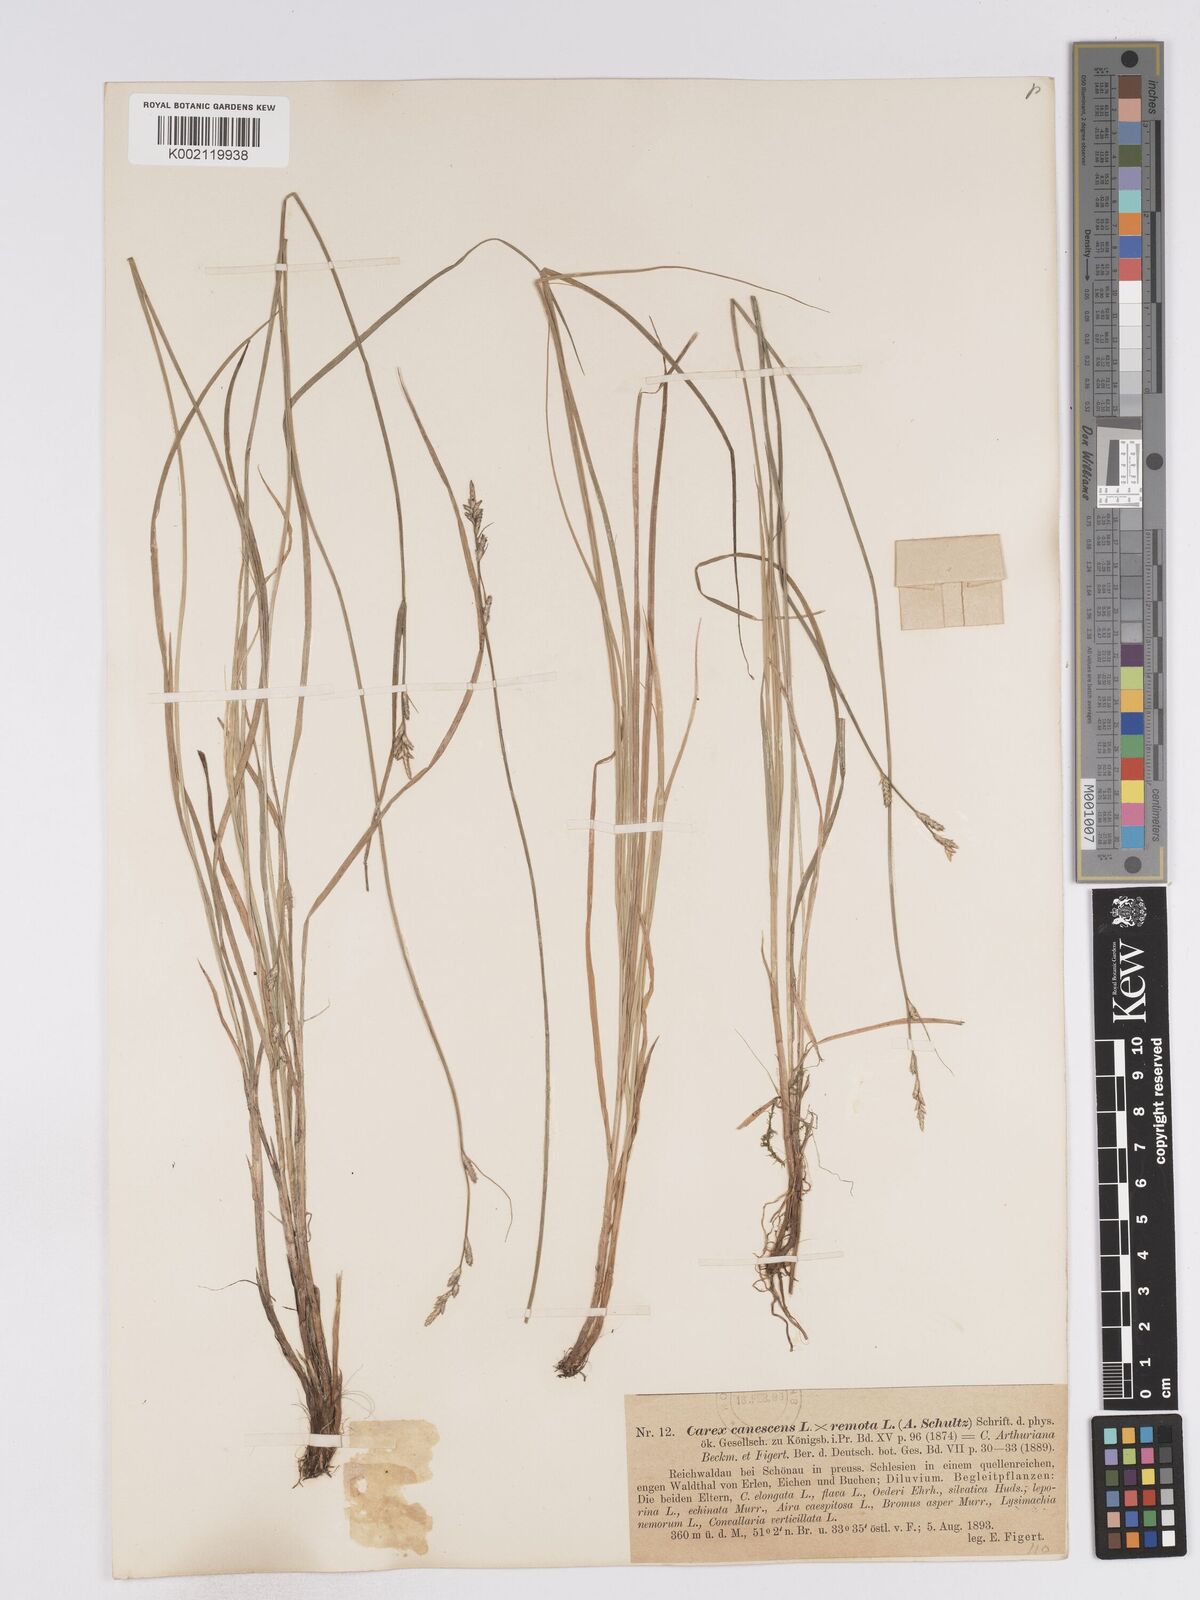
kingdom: Plantae
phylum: Tracheophyta
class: Liliopsida
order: Poales
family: Cyperaceae
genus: Carex
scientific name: Carex curta
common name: White sedge
